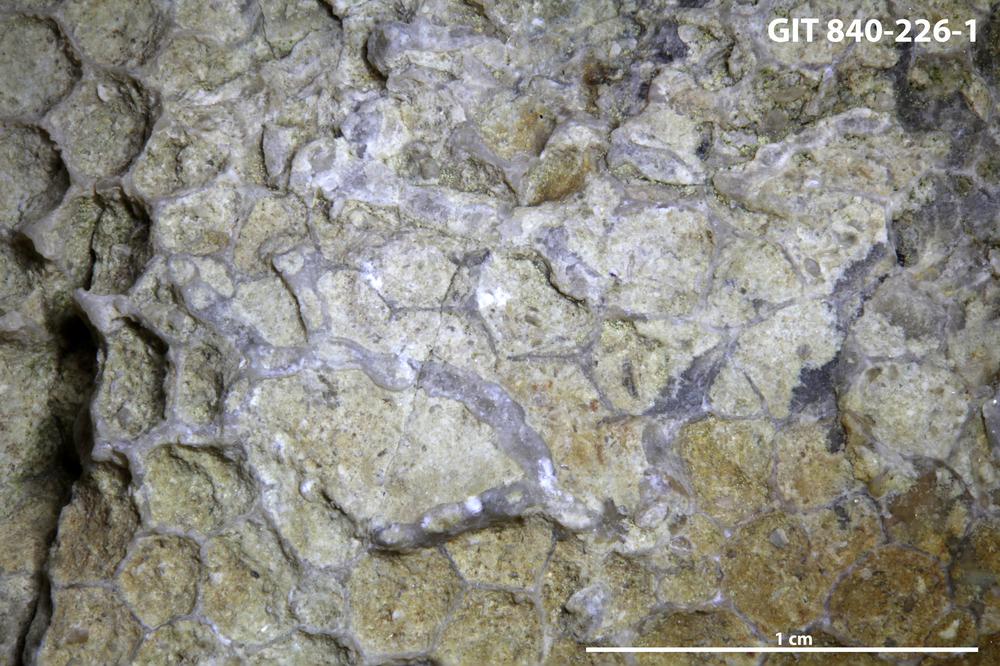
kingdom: Animalia
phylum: Cnidaria
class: Anthozoa
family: Cateniporidae
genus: Catenipora
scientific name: Catenipora
